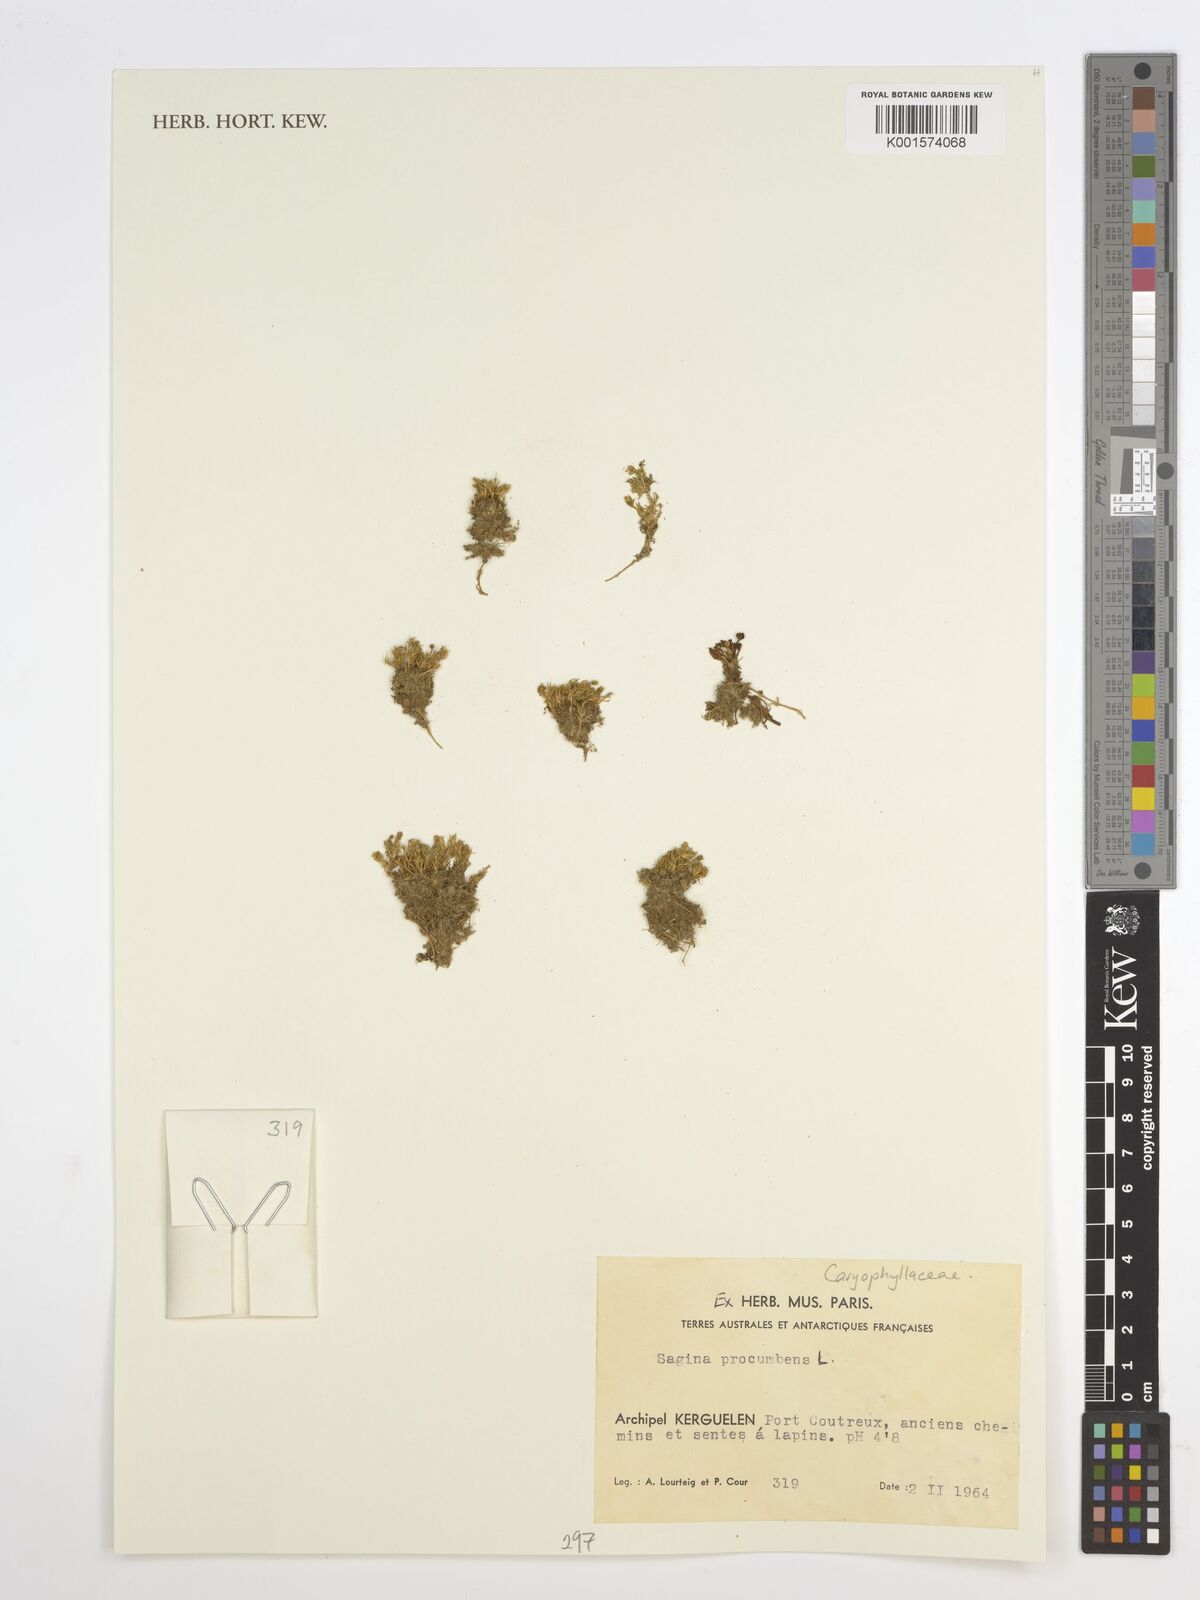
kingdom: Plantae
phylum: Tracheophyta
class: Magnoliopsida
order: Caryophyllales
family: Caryophyllaceae
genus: Sagina
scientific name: Sagina procumbens
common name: Procumbent pearlwort
